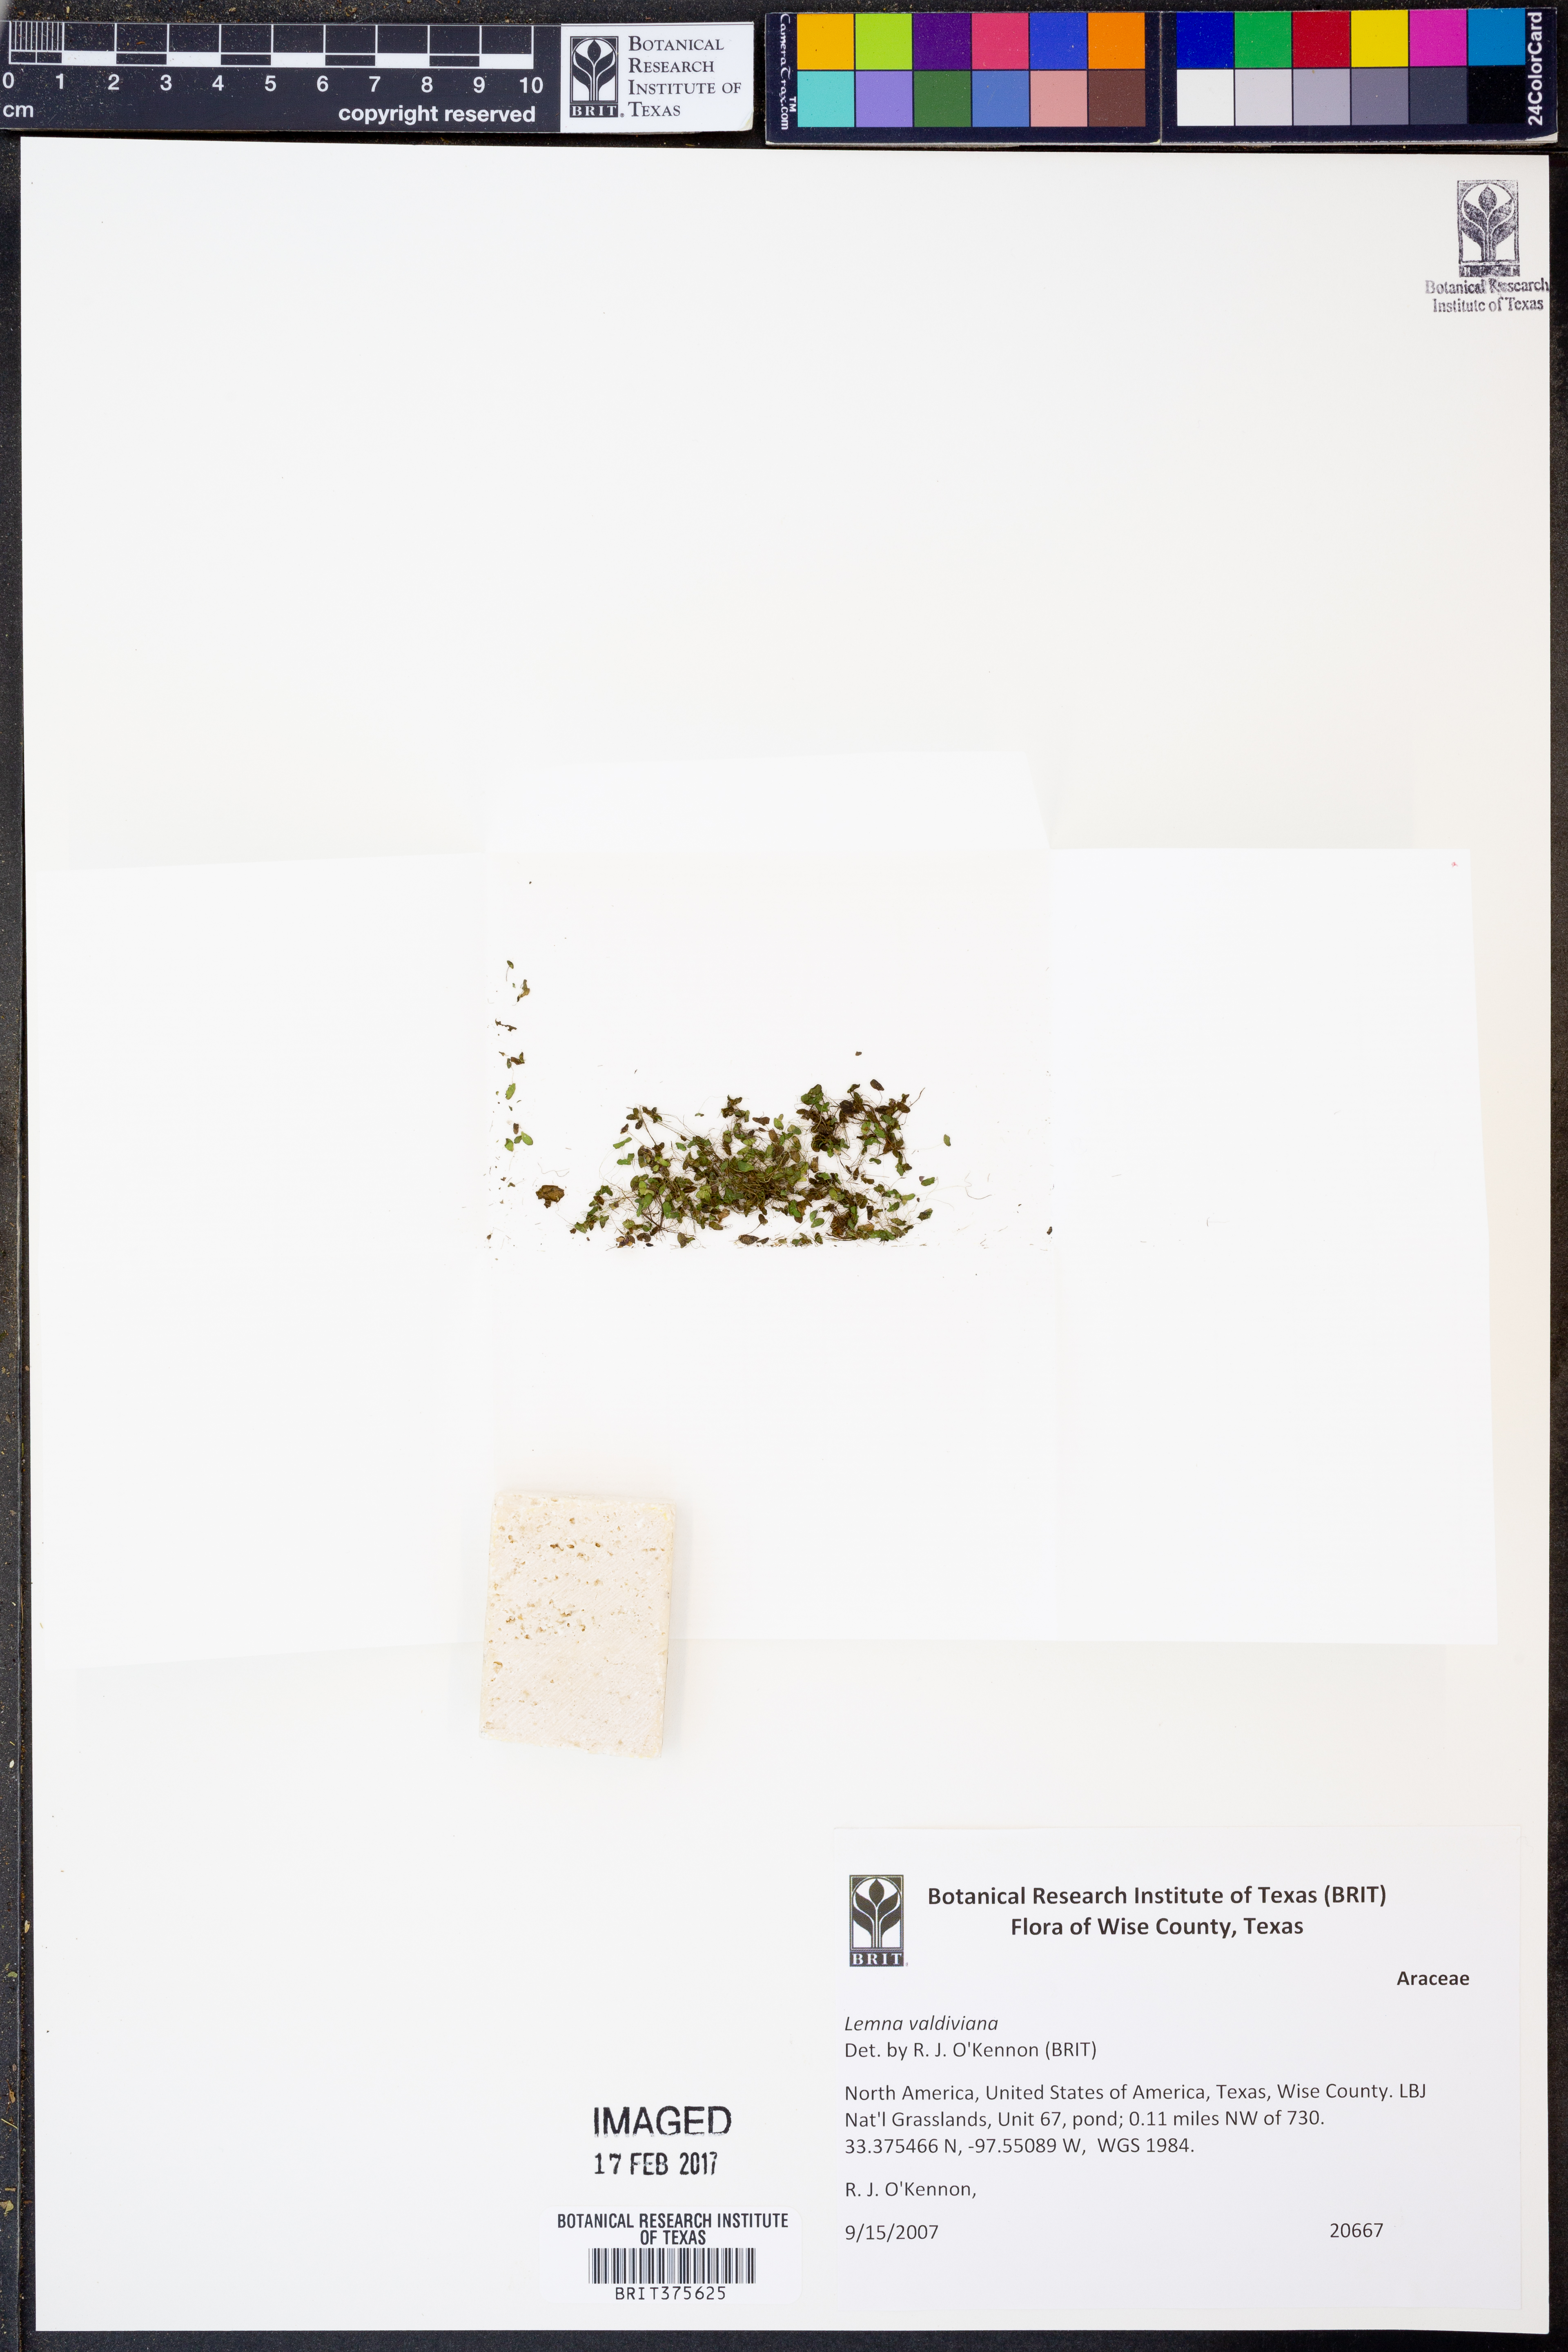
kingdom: Plantae
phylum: Tracheophyta
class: Liliopsida
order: Alismatales
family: Araceae
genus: Lemna
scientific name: Lemna valdiviana
